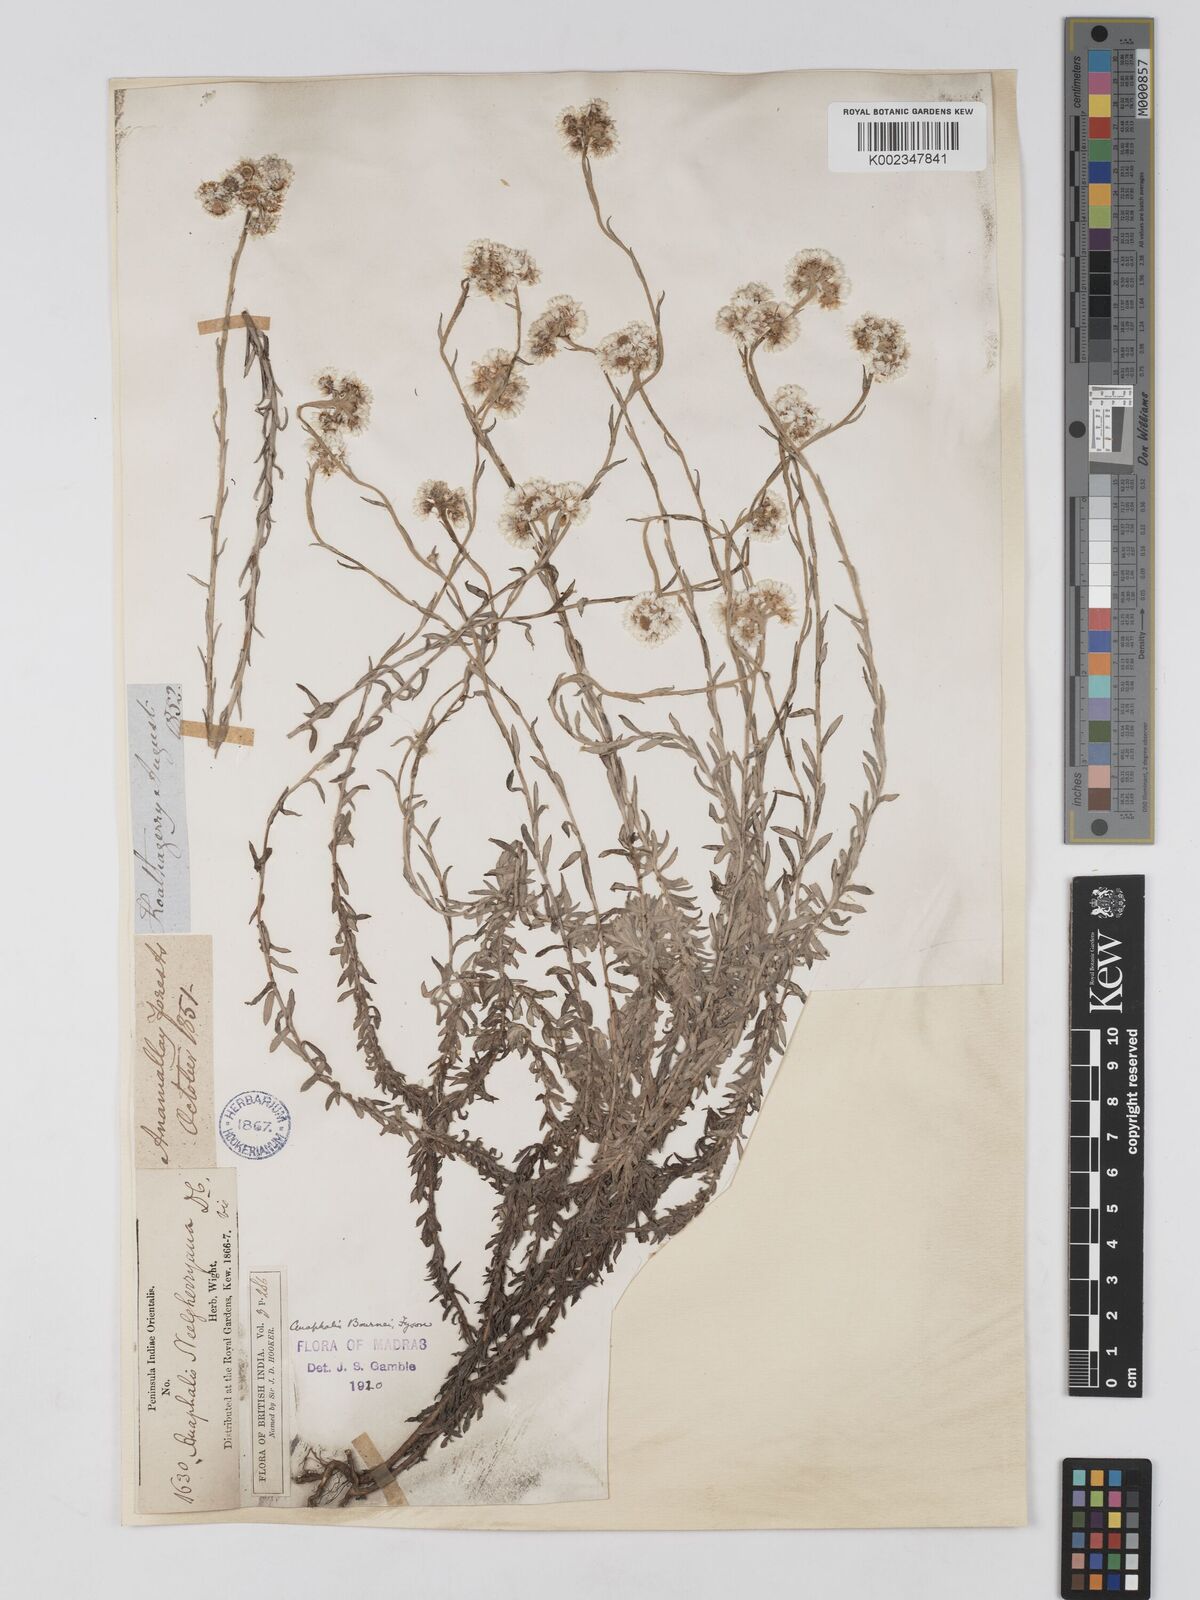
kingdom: Plantae
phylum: Tracheophyta
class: Magnoliopsida
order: Asterales
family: Asteraceae
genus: Anaphalis
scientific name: Anaphalis bournei
